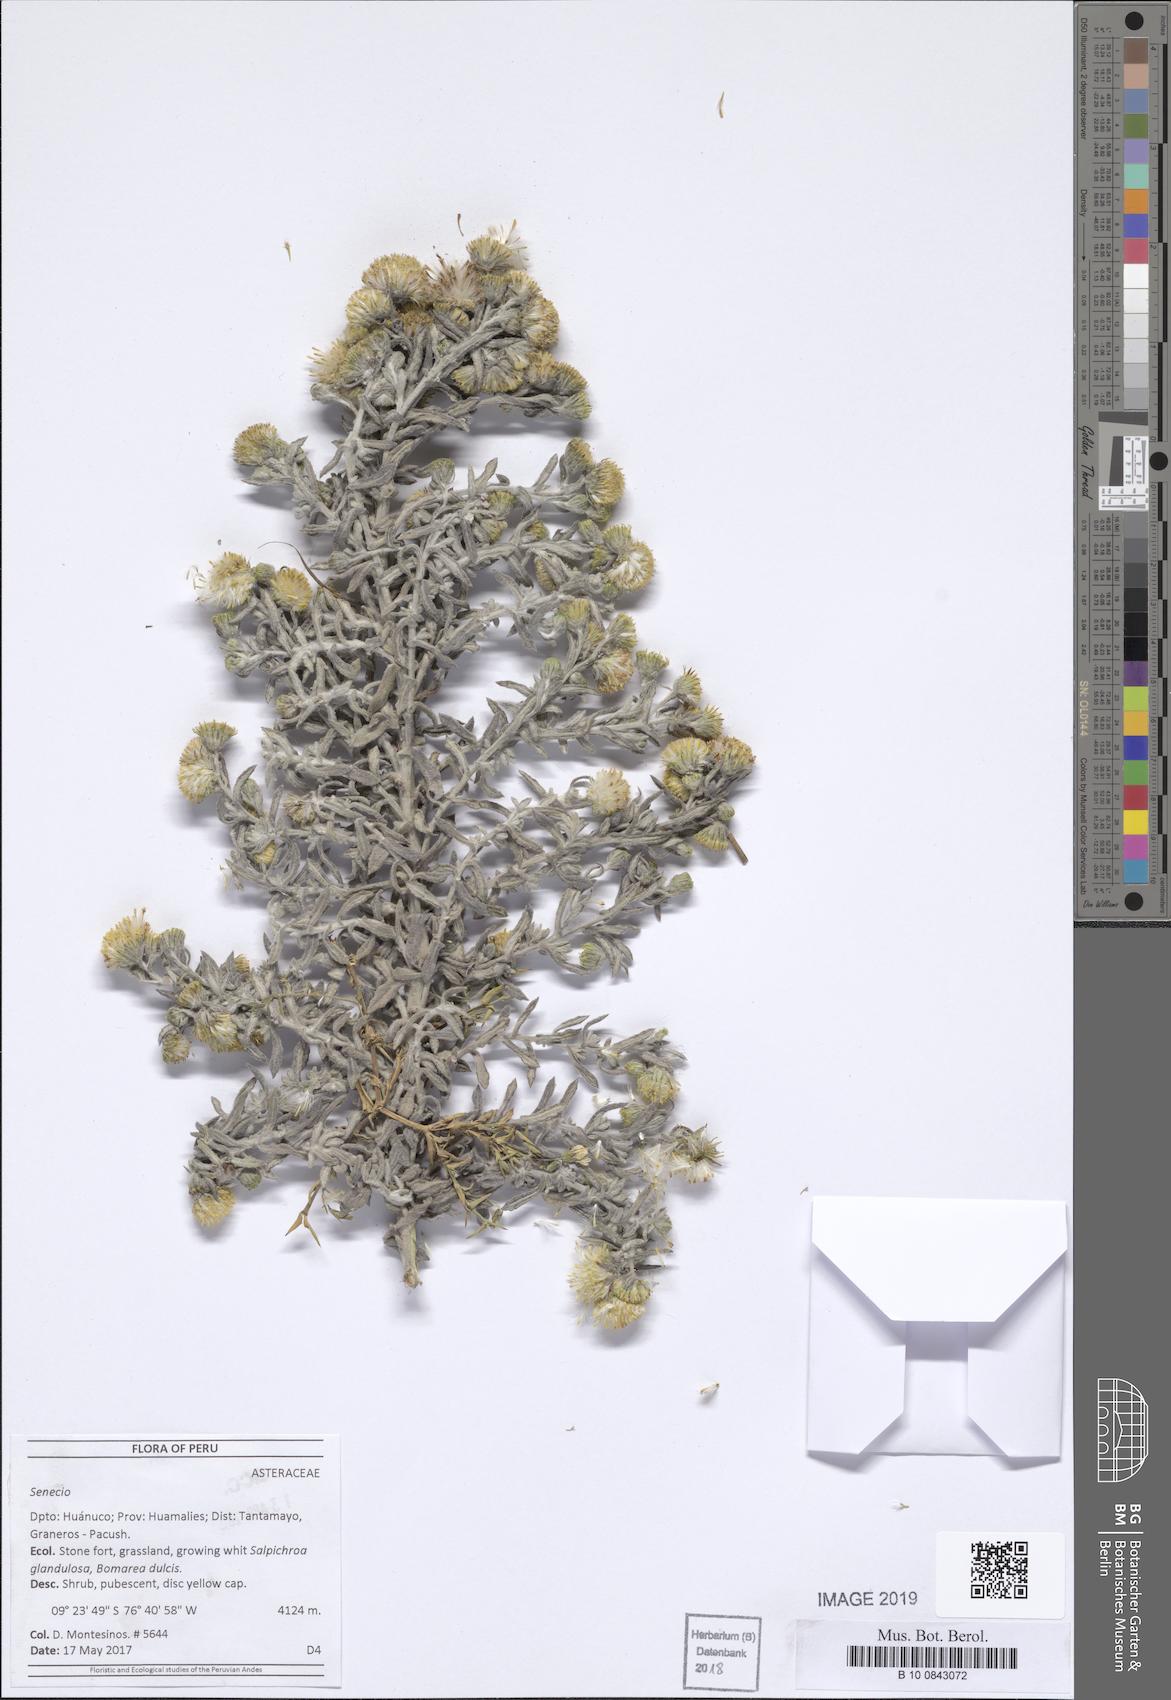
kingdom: Plantae
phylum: Tracheophyta
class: Magnoliopsida
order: Asterales
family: Asteraceae
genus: Senecio
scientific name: Senecio minesinus
